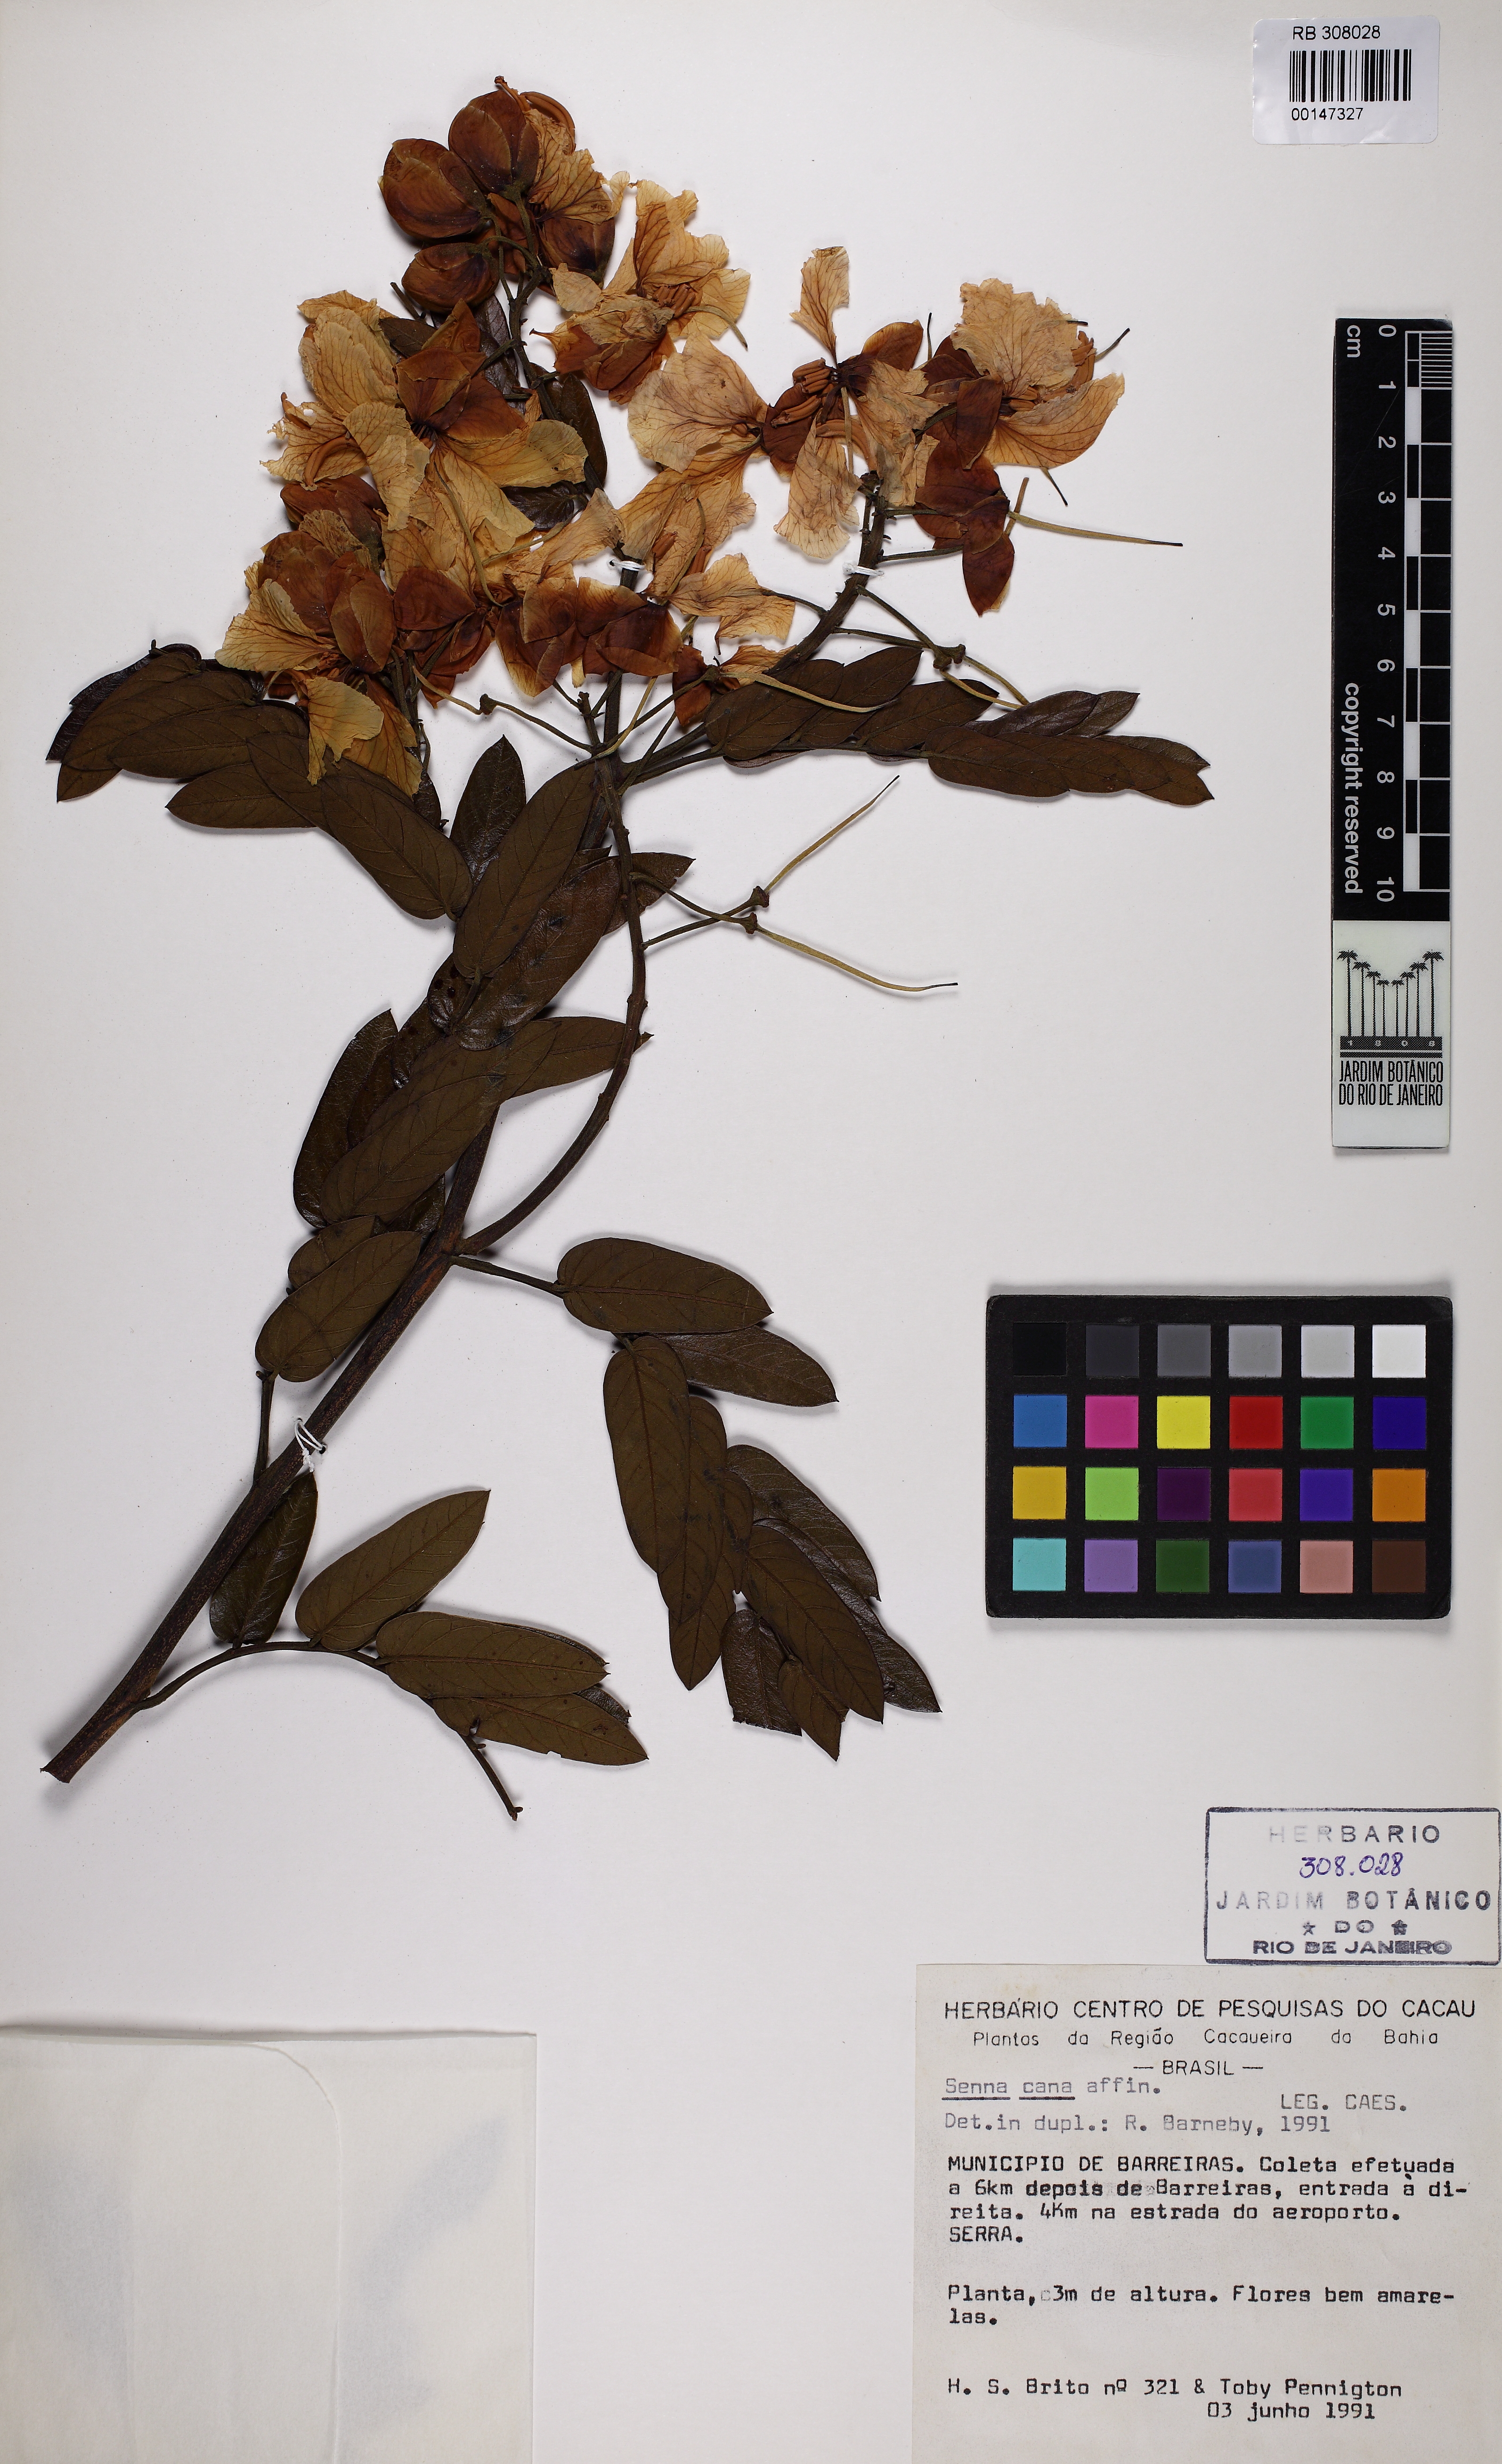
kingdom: Plantae
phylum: Tracheophyta
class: Magnoliopsida
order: Fabales
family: Fabaceae
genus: Senna
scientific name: Senna cana
